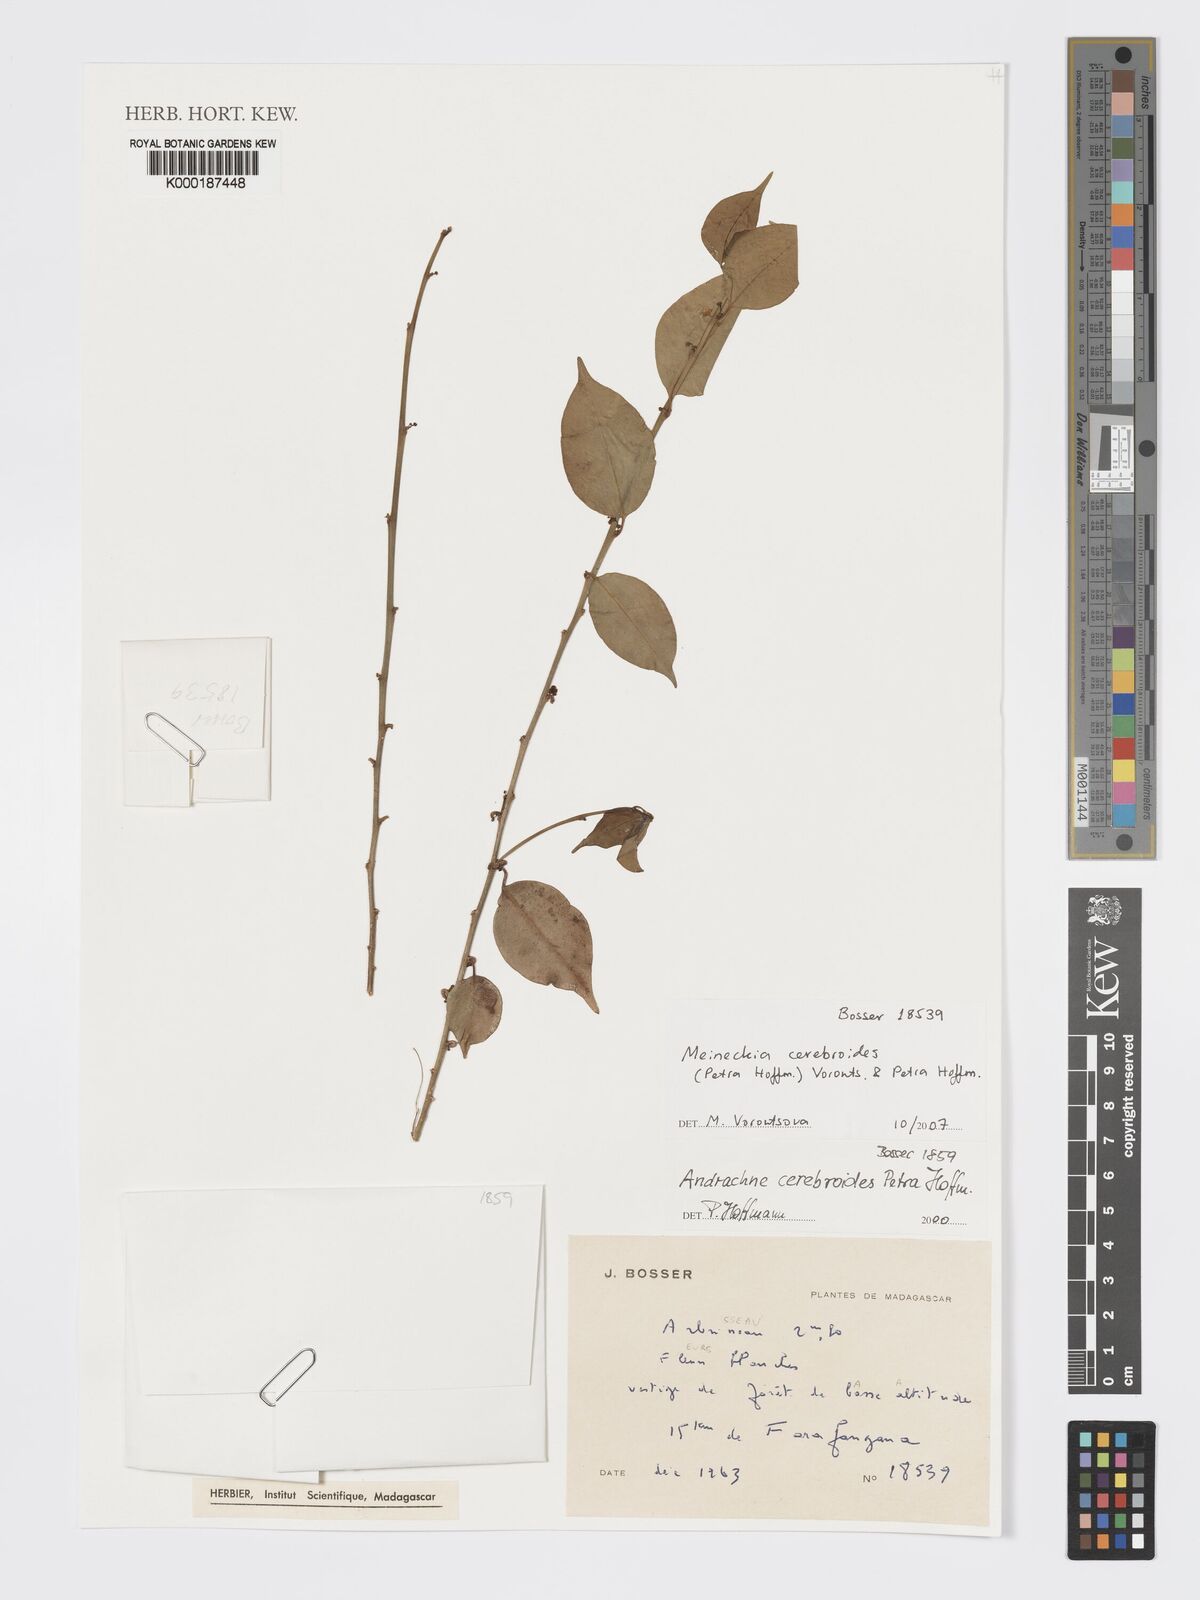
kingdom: Plantae
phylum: Tracheophyta
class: Magnoliopsida
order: Malpighiales
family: Phyllanthaceae
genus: Meineckia
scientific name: Meineckia cerebroides
